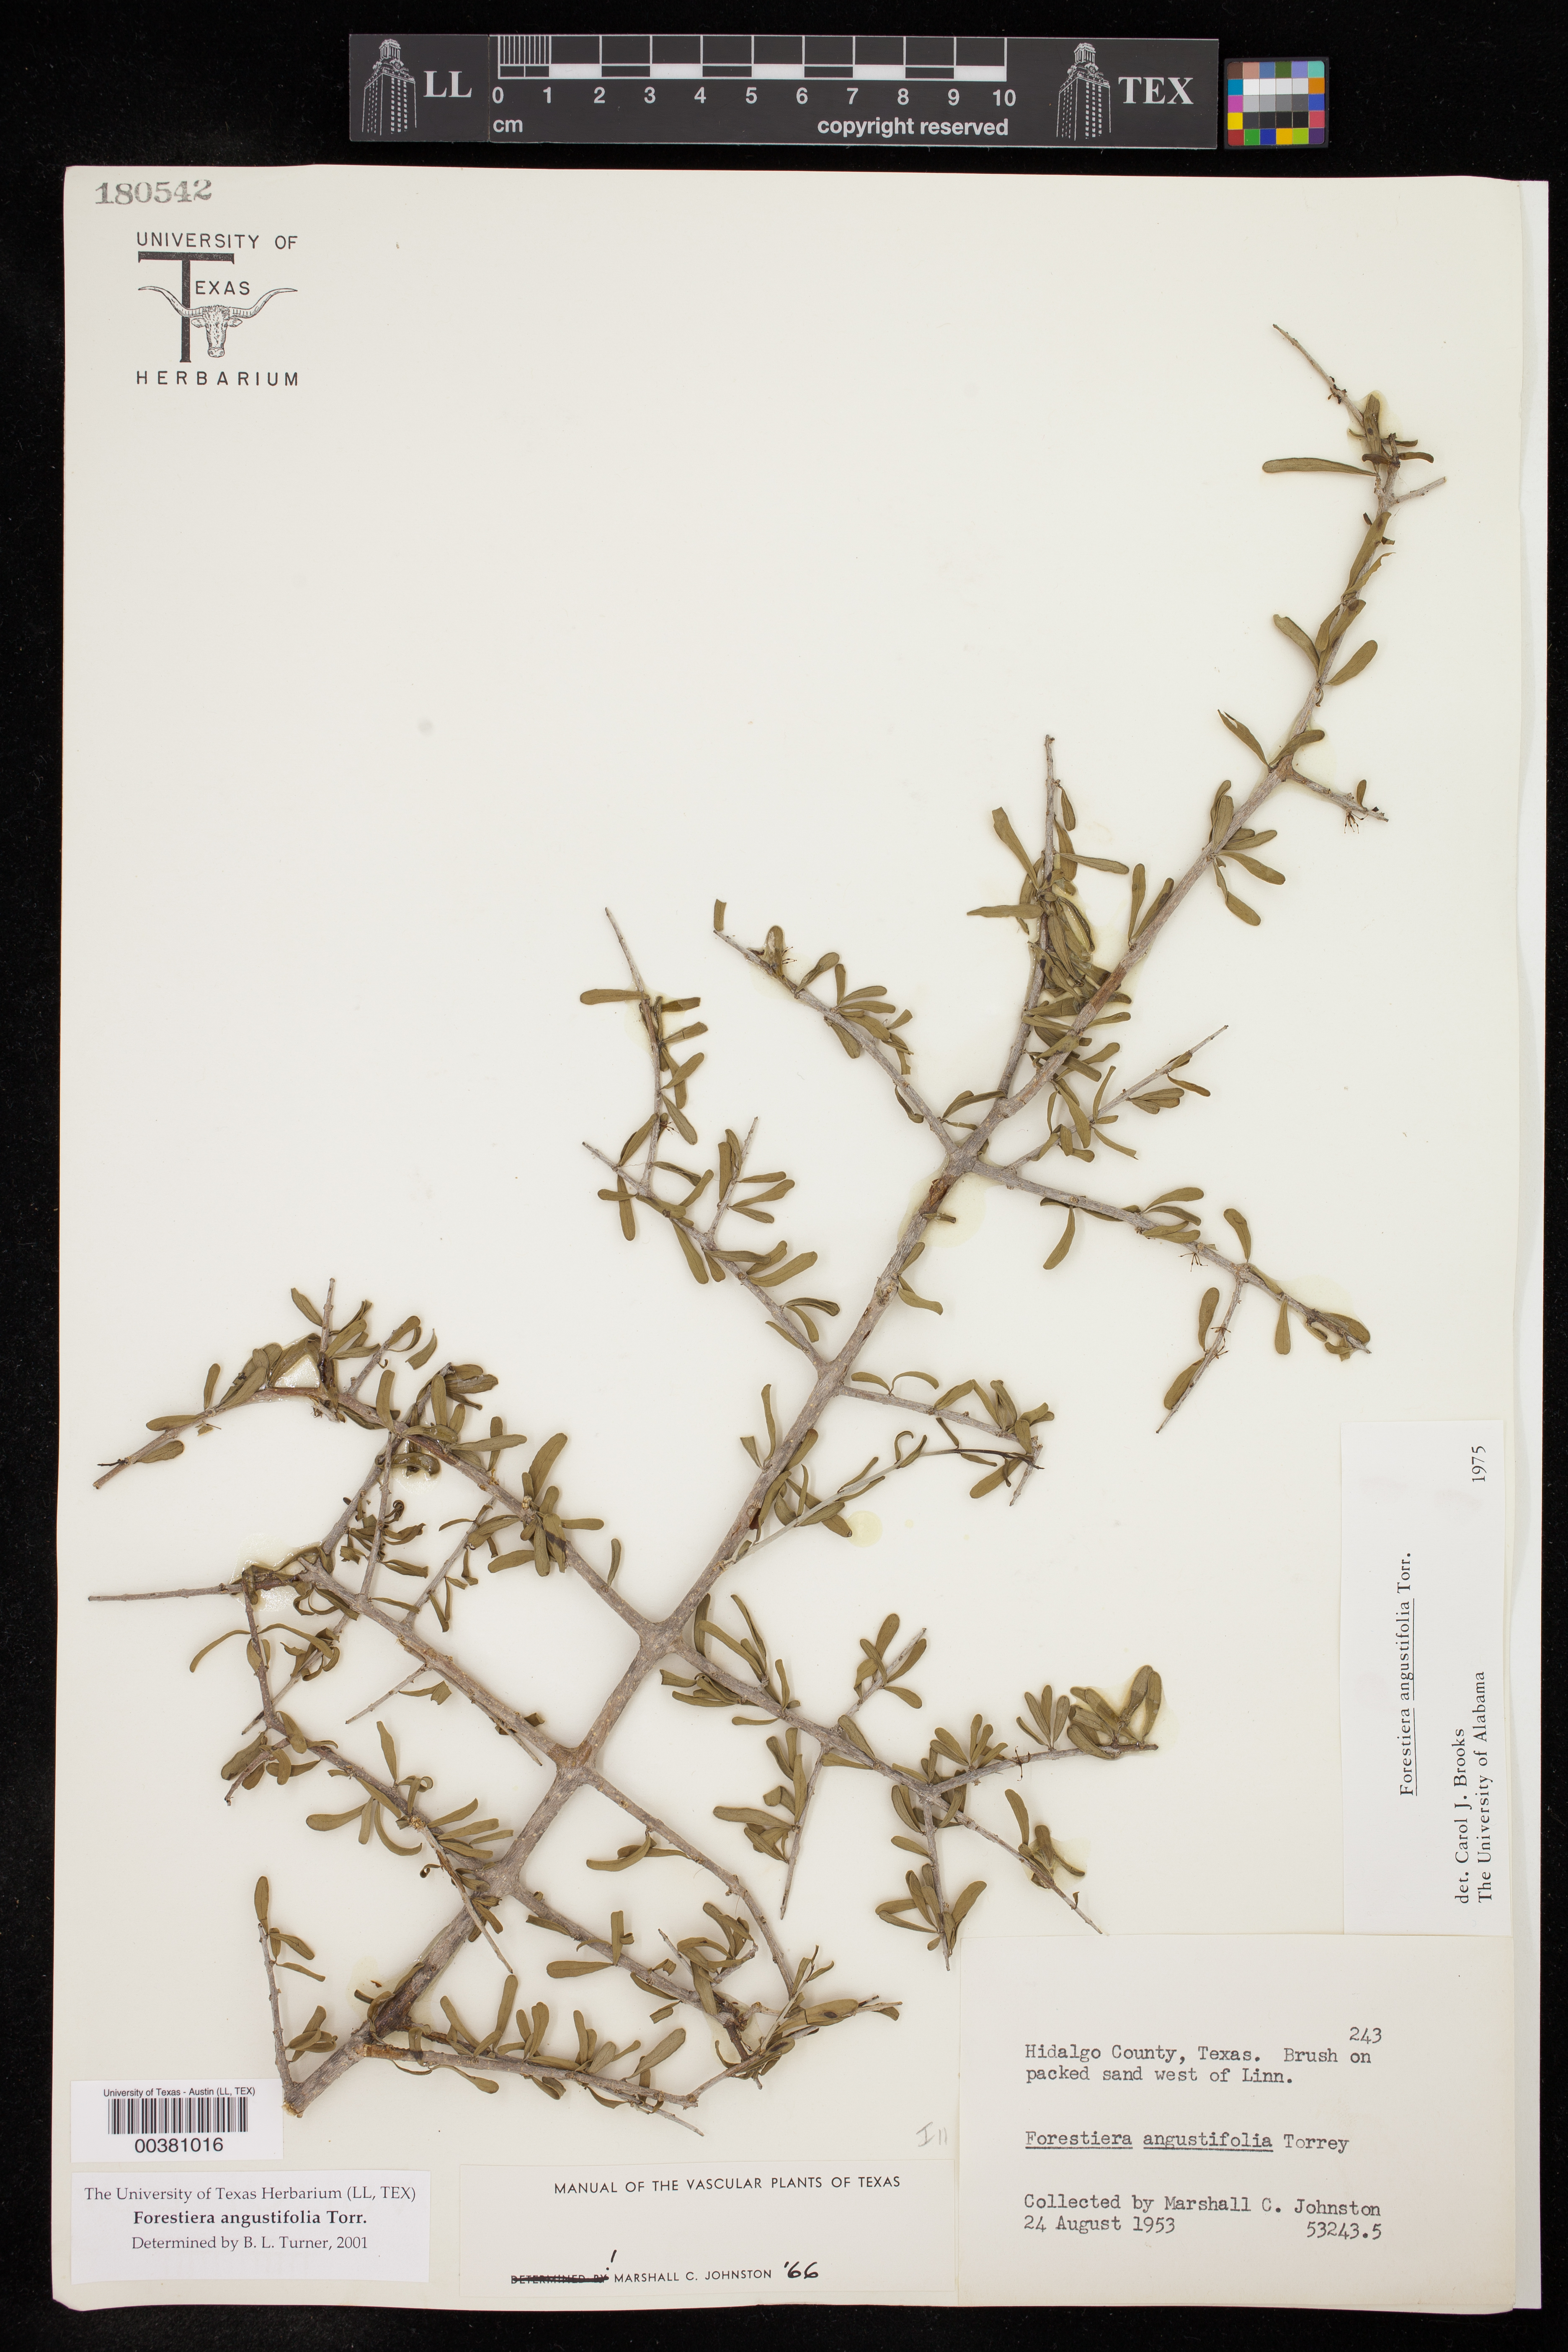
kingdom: Plantae
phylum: Tracheophyta
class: Magnoliopsida
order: Lamiales
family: Oleaceae
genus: Forestiera
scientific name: Forestiera angustifolia
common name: Elbowbush
